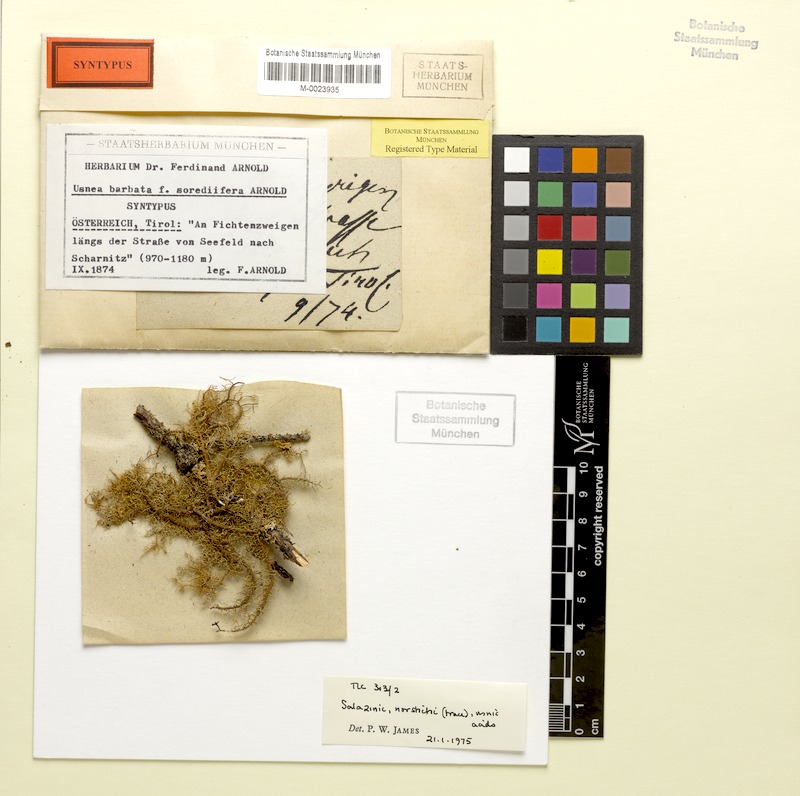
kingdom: Fungi
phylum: Ascomycota
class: Lecanoromycetes
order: Lecanorales
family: Parmeliaceae
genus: Usnea
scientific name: Usnea glabrata
